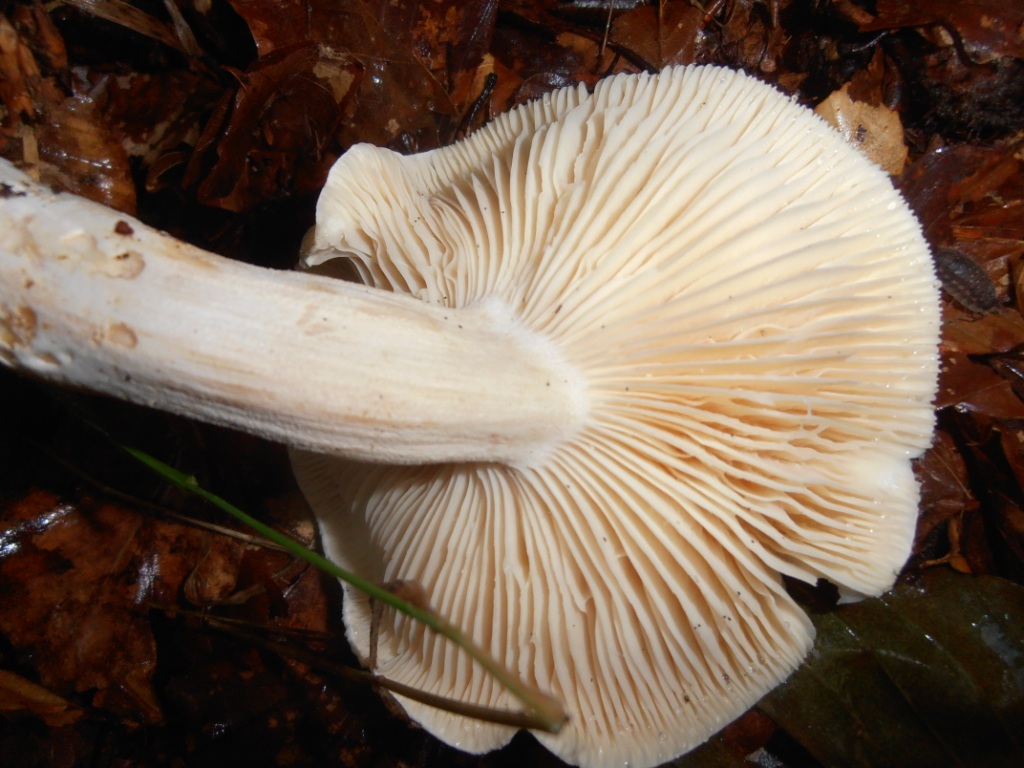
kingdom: Fungi
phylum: Basidiomycota
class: Agaricomycetes
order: Agaricales
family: Tricholomataceae
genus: Tricholoma
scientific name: Tricholoma lascivum
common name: stinkende ridderhat
